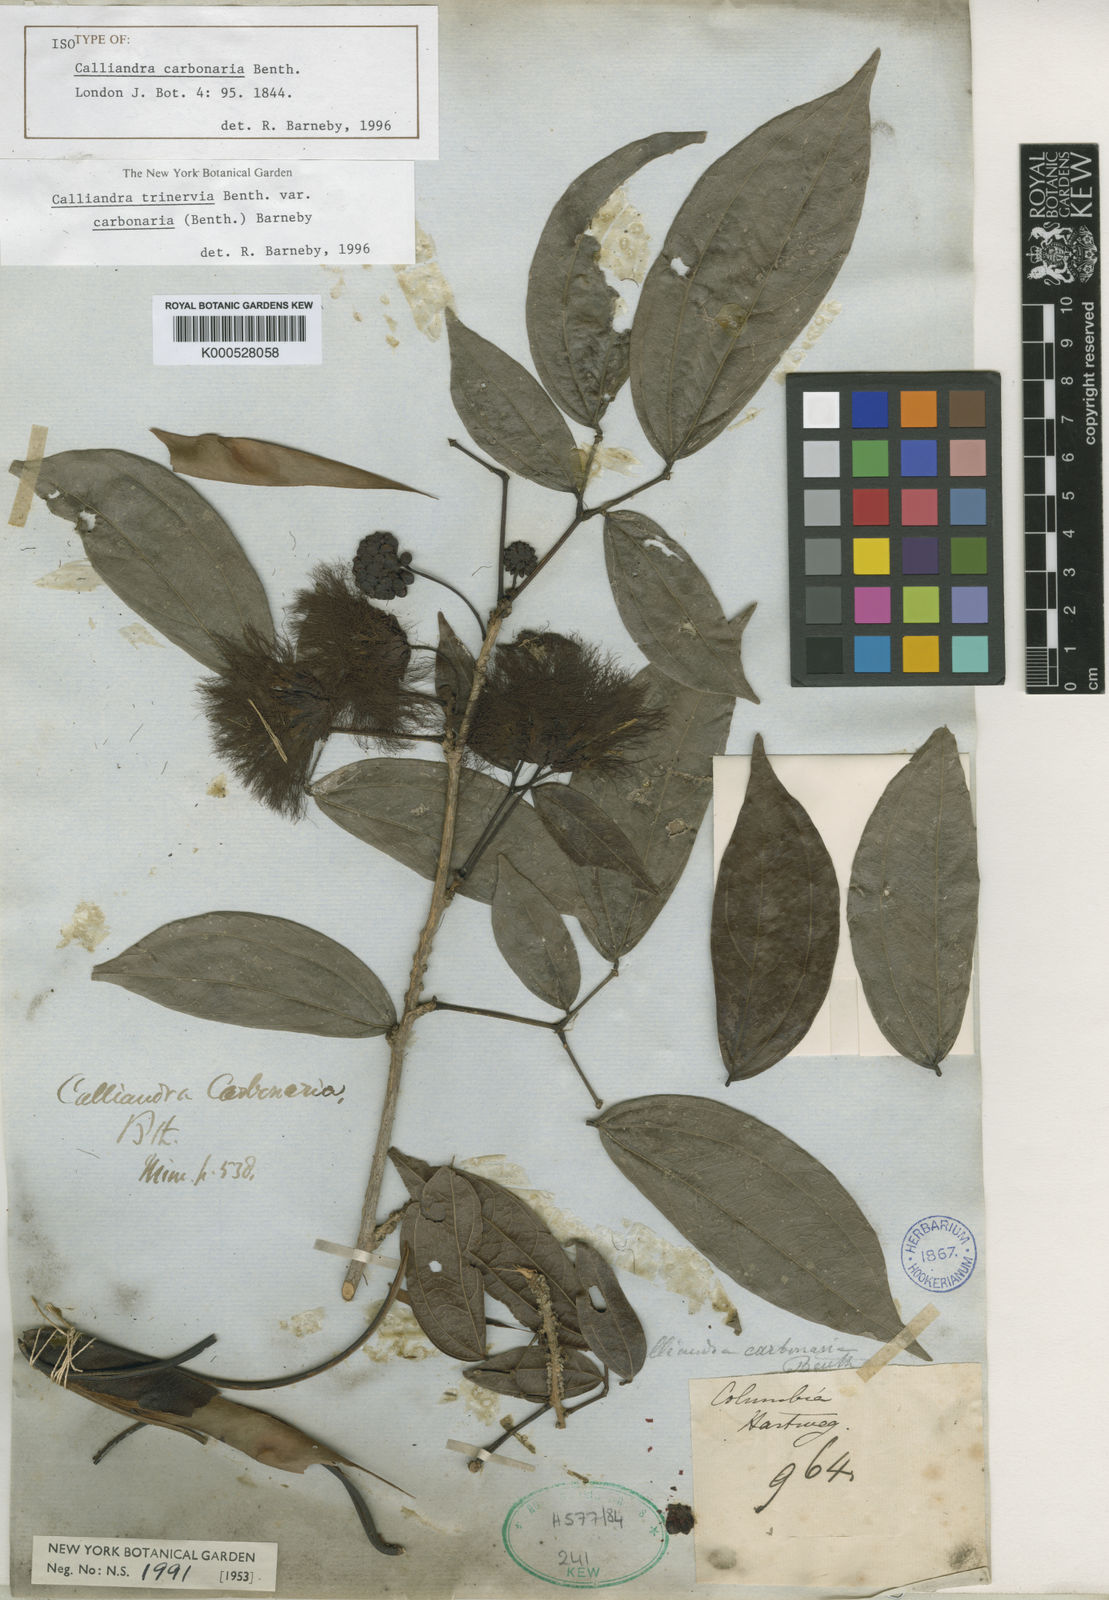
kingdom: Plantae
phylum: Tracheophyta
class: Magnoliopsida
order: Fabales
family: Fabaceae
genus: Calliandra
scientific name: Calliandra trinervia
